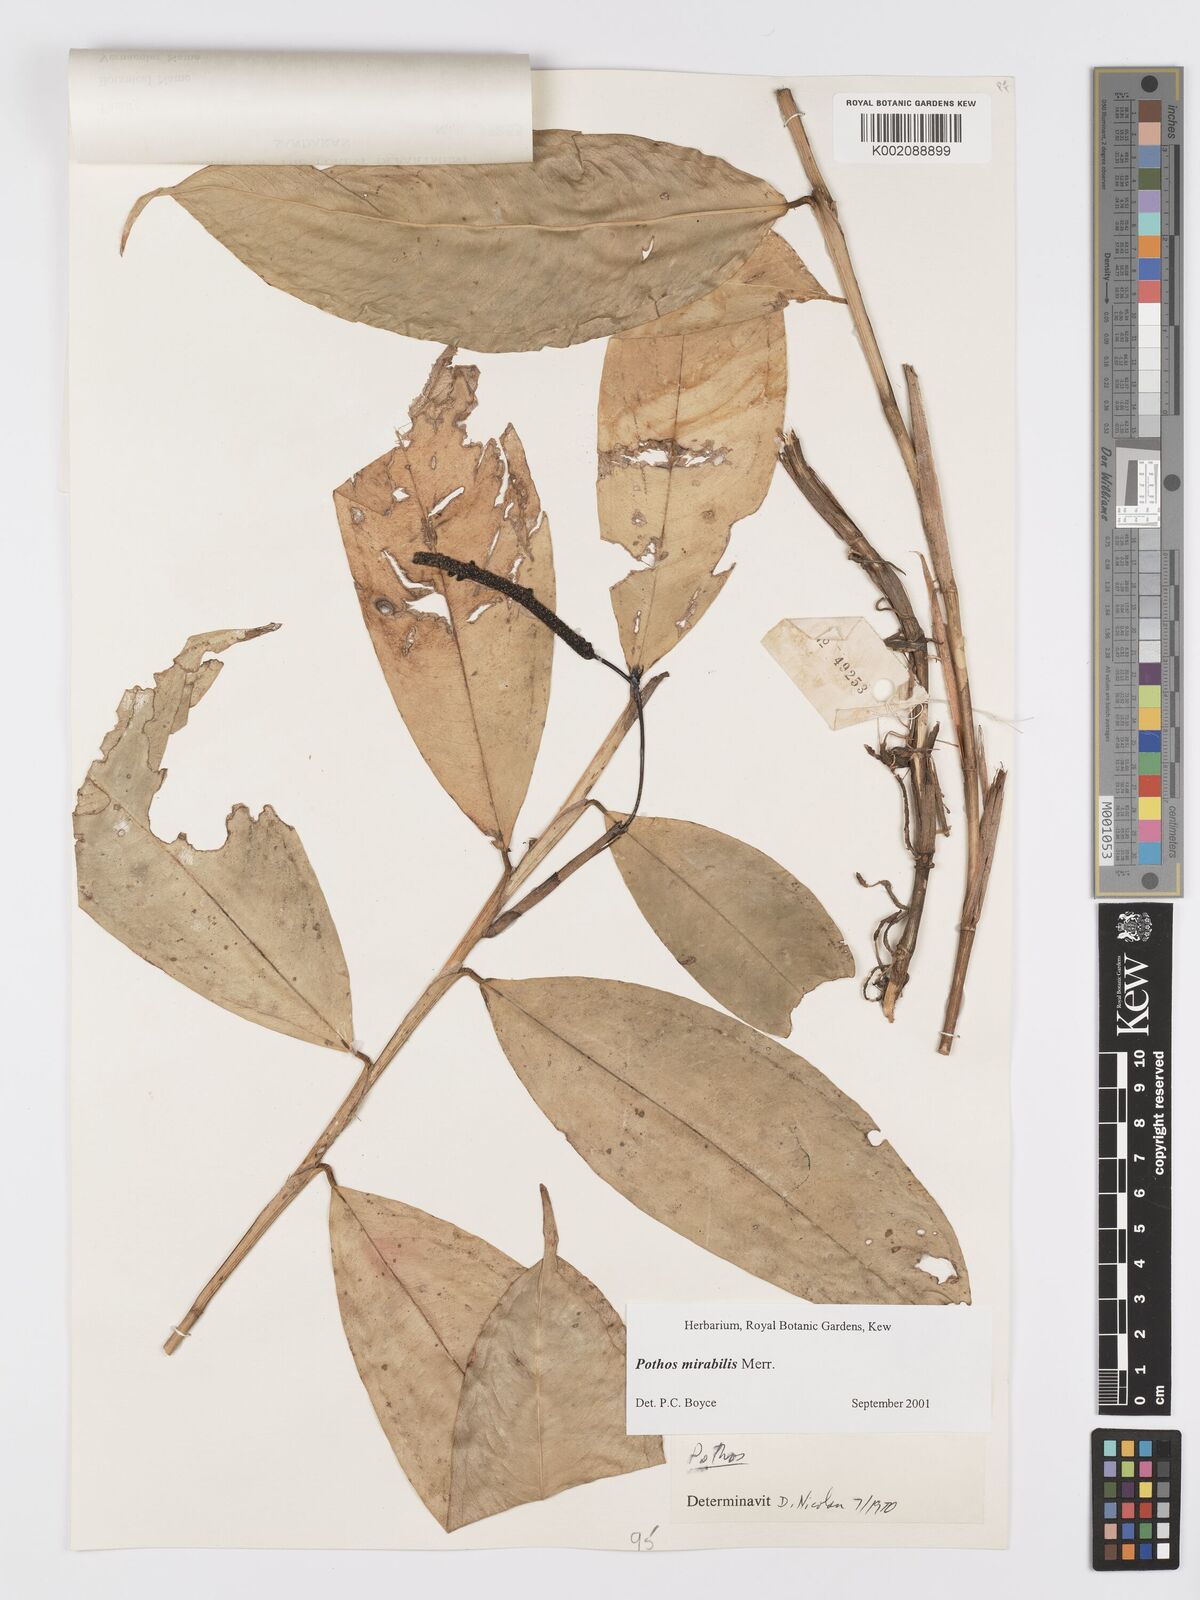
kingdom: Plantae
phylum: Tracheophyta
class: Liliopsida
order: Alismatales
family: Araceae
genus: Pothos
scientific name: Pothos mirabilis
